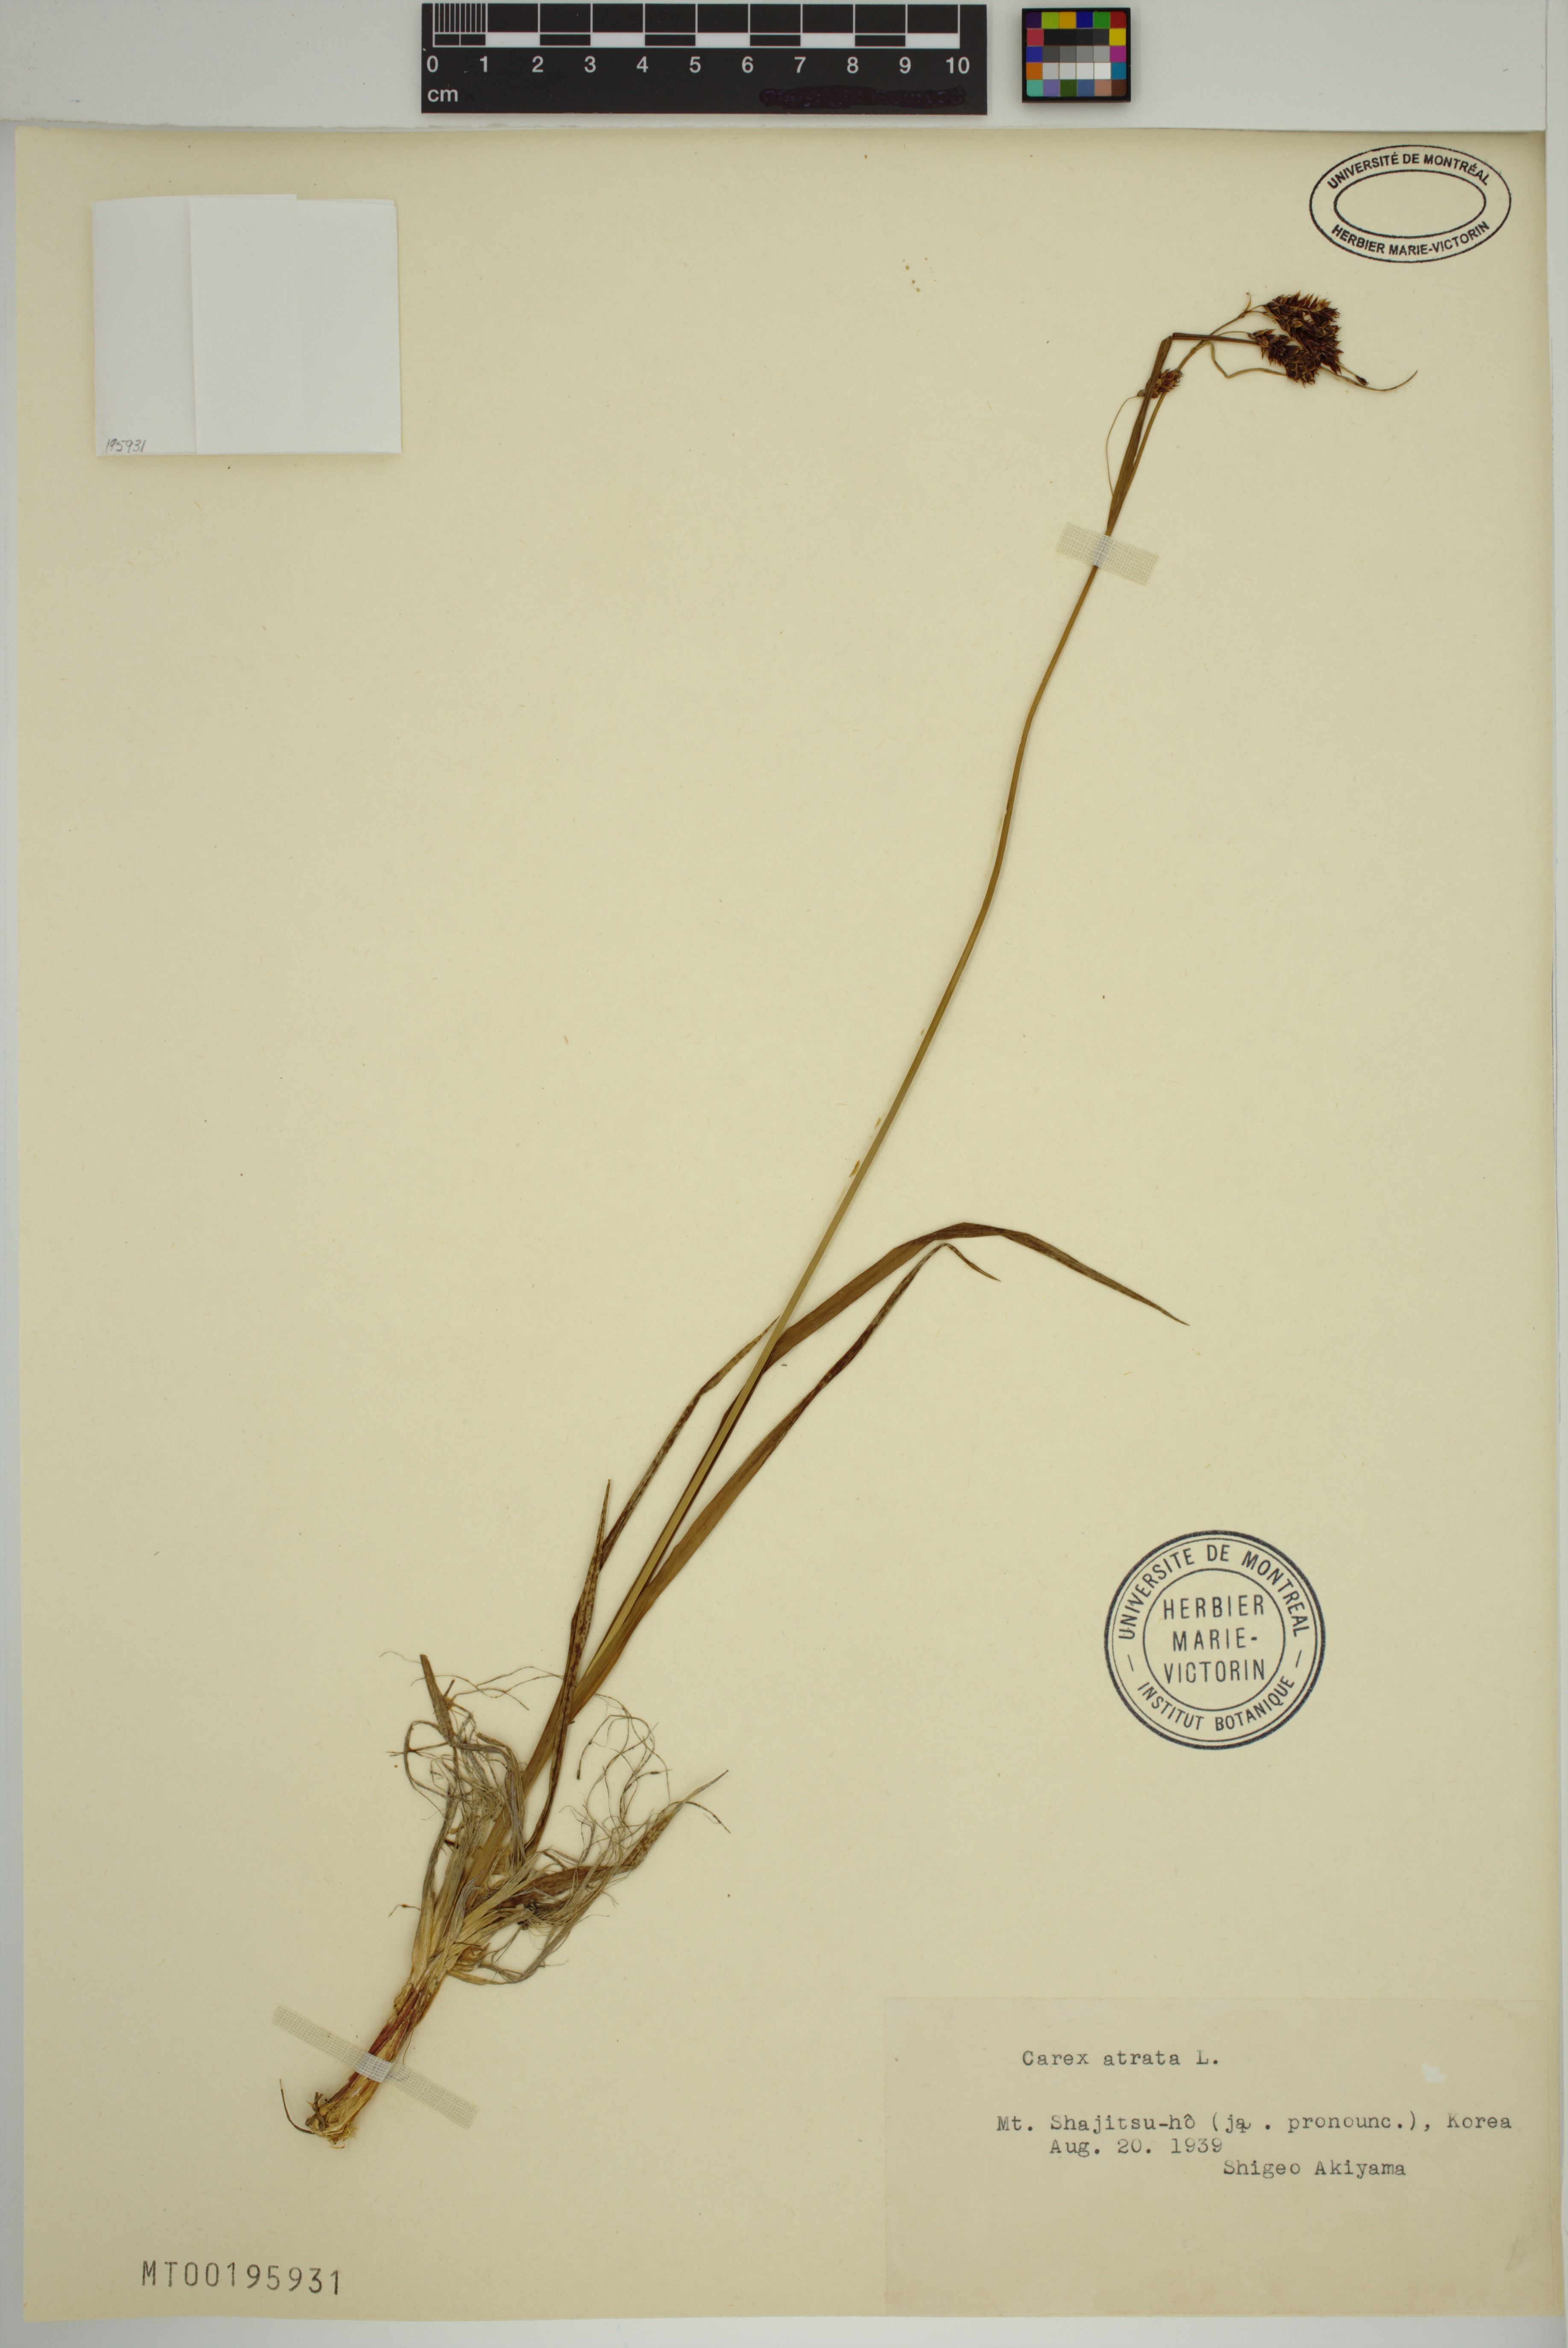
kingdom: Plantae
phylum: Tracheophyta
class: Liliopsida
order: Poales
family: Cyperaceae
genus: Carex
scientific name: Carex atrata
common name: Black alpine sedge
